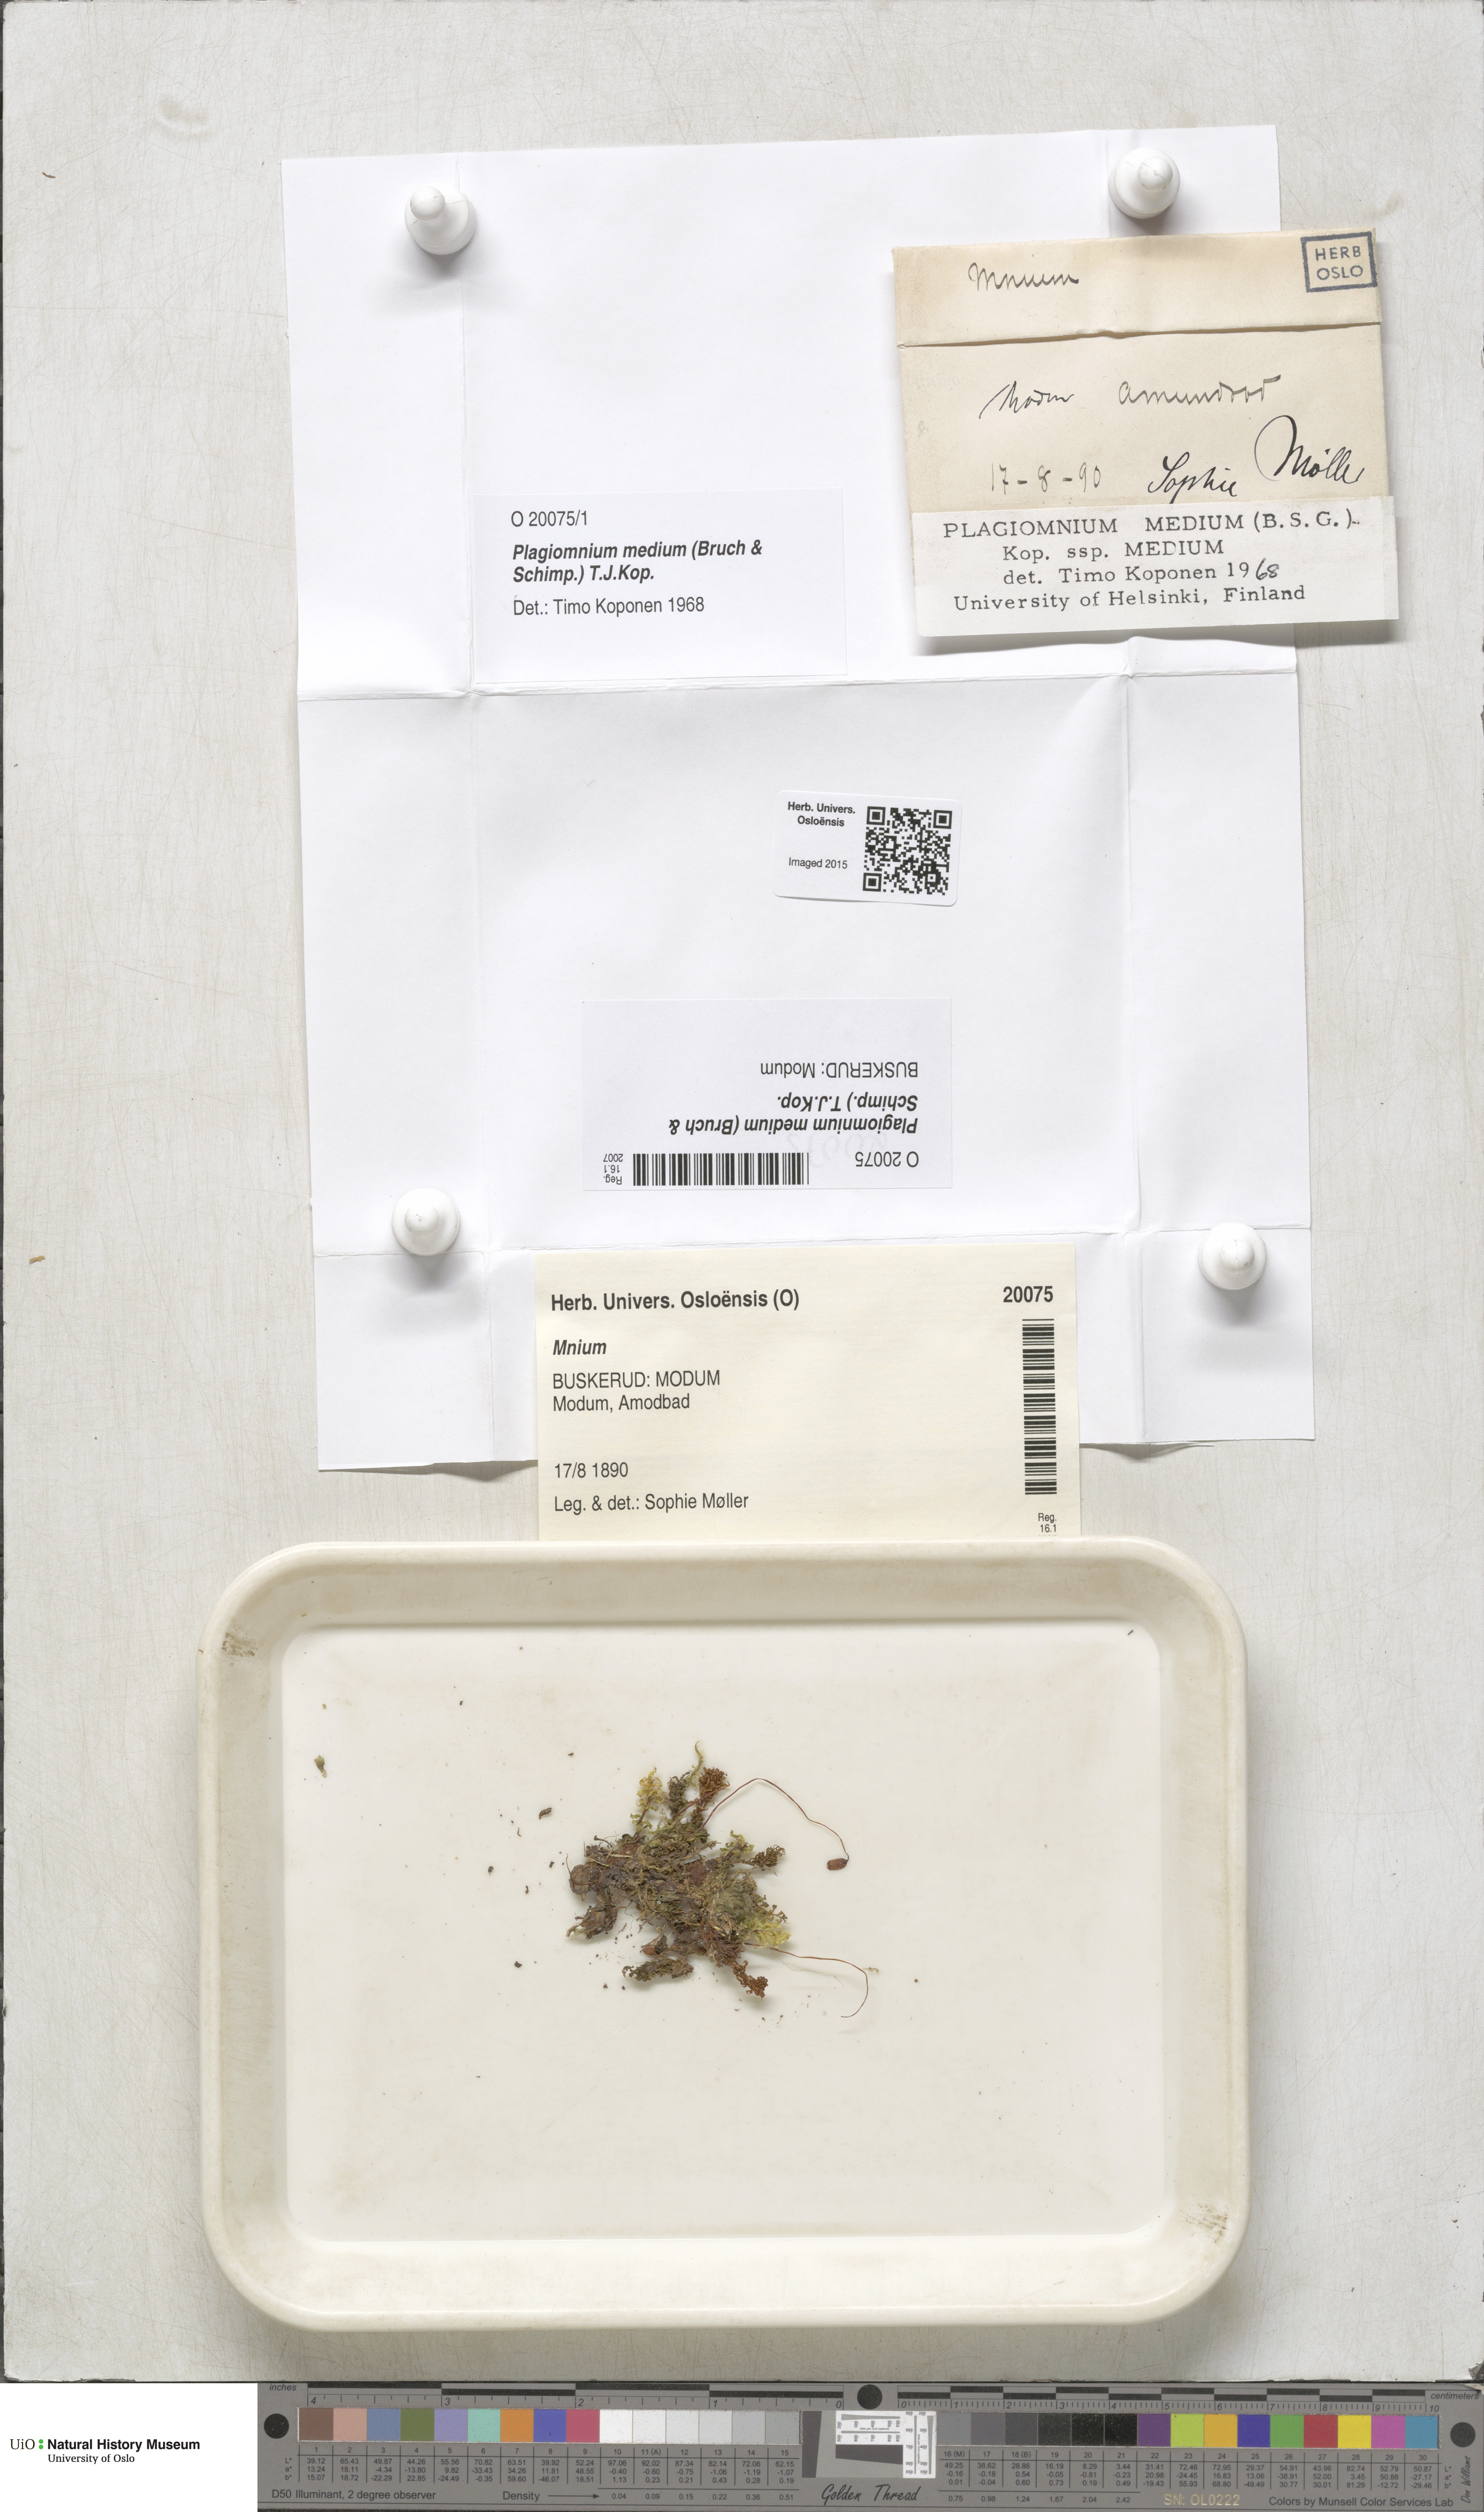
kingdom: Plantae
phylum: Bryophyta
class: Bryopsida
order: Bryales
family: Mniaceae
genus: Plagiomnium
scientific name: Plagiomnium medium
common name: Alpine leafy moss
